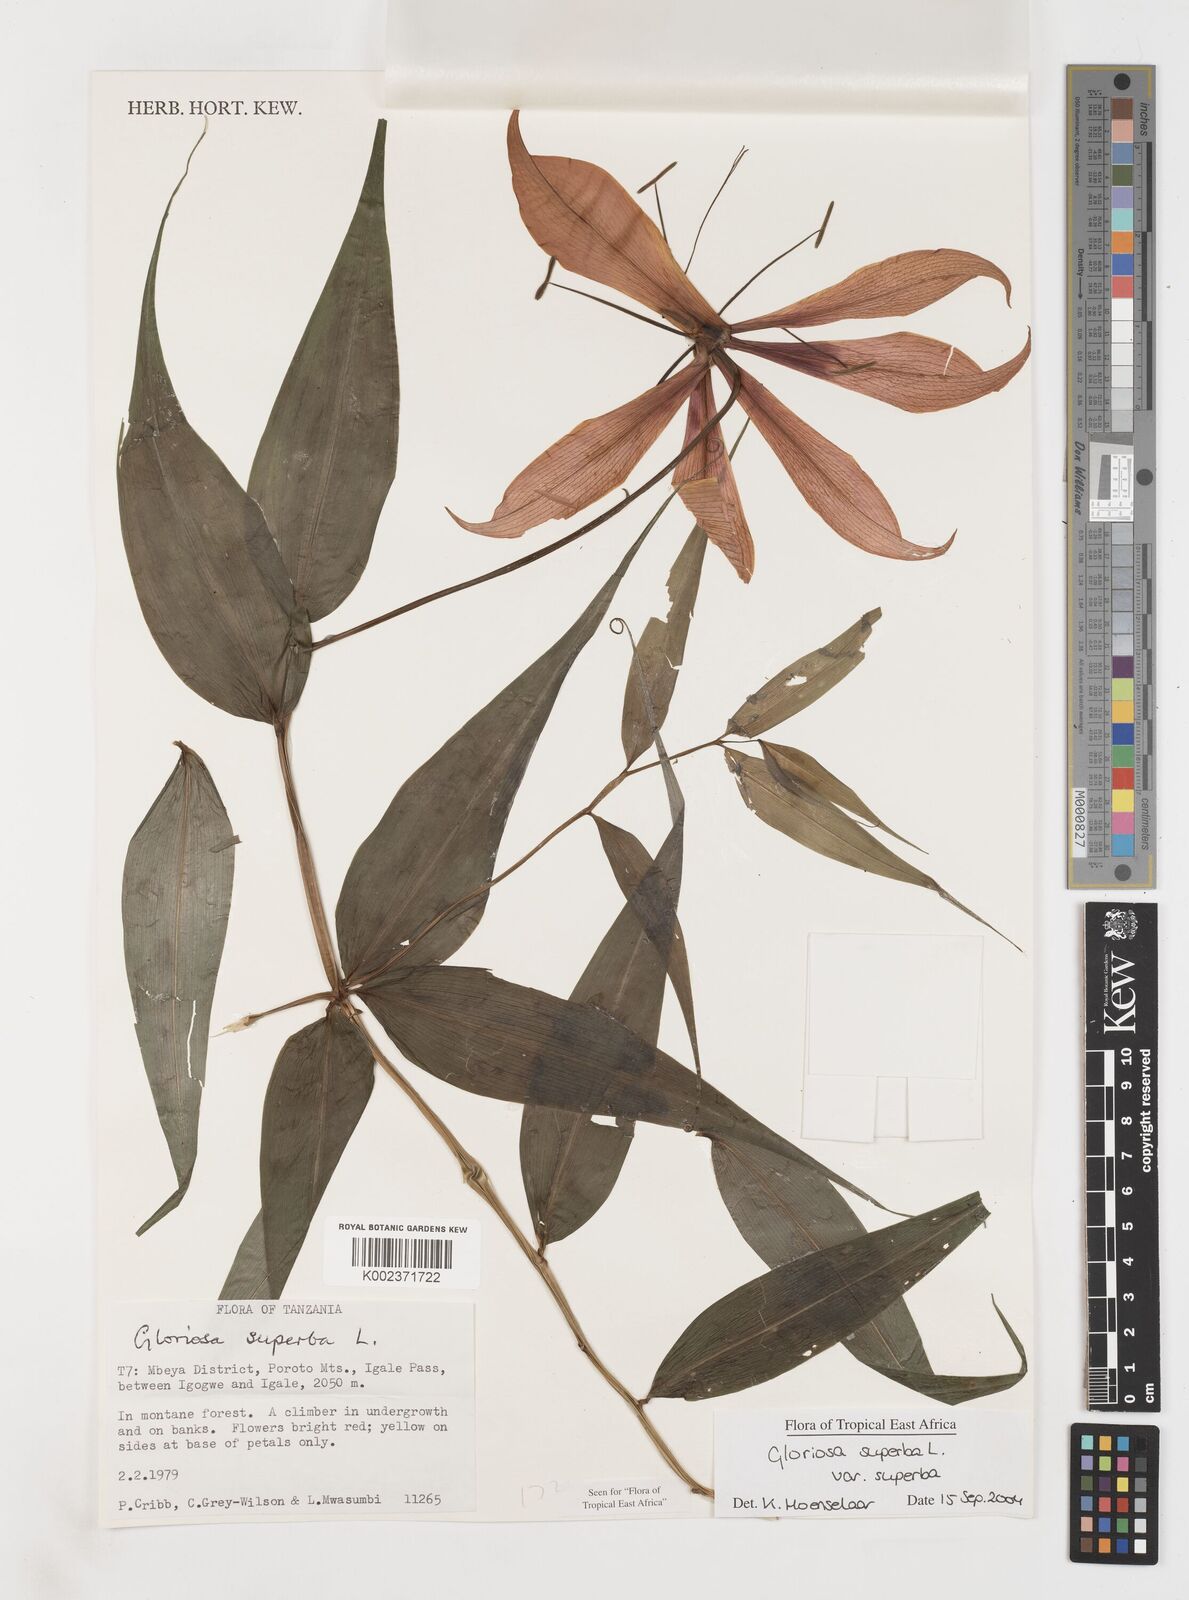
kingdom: Plantae
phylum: Tracheophyta
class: Liliopsida
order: Liliales
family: Colchicaceae
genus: Gloriosa
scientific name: Gloriosa simplex
